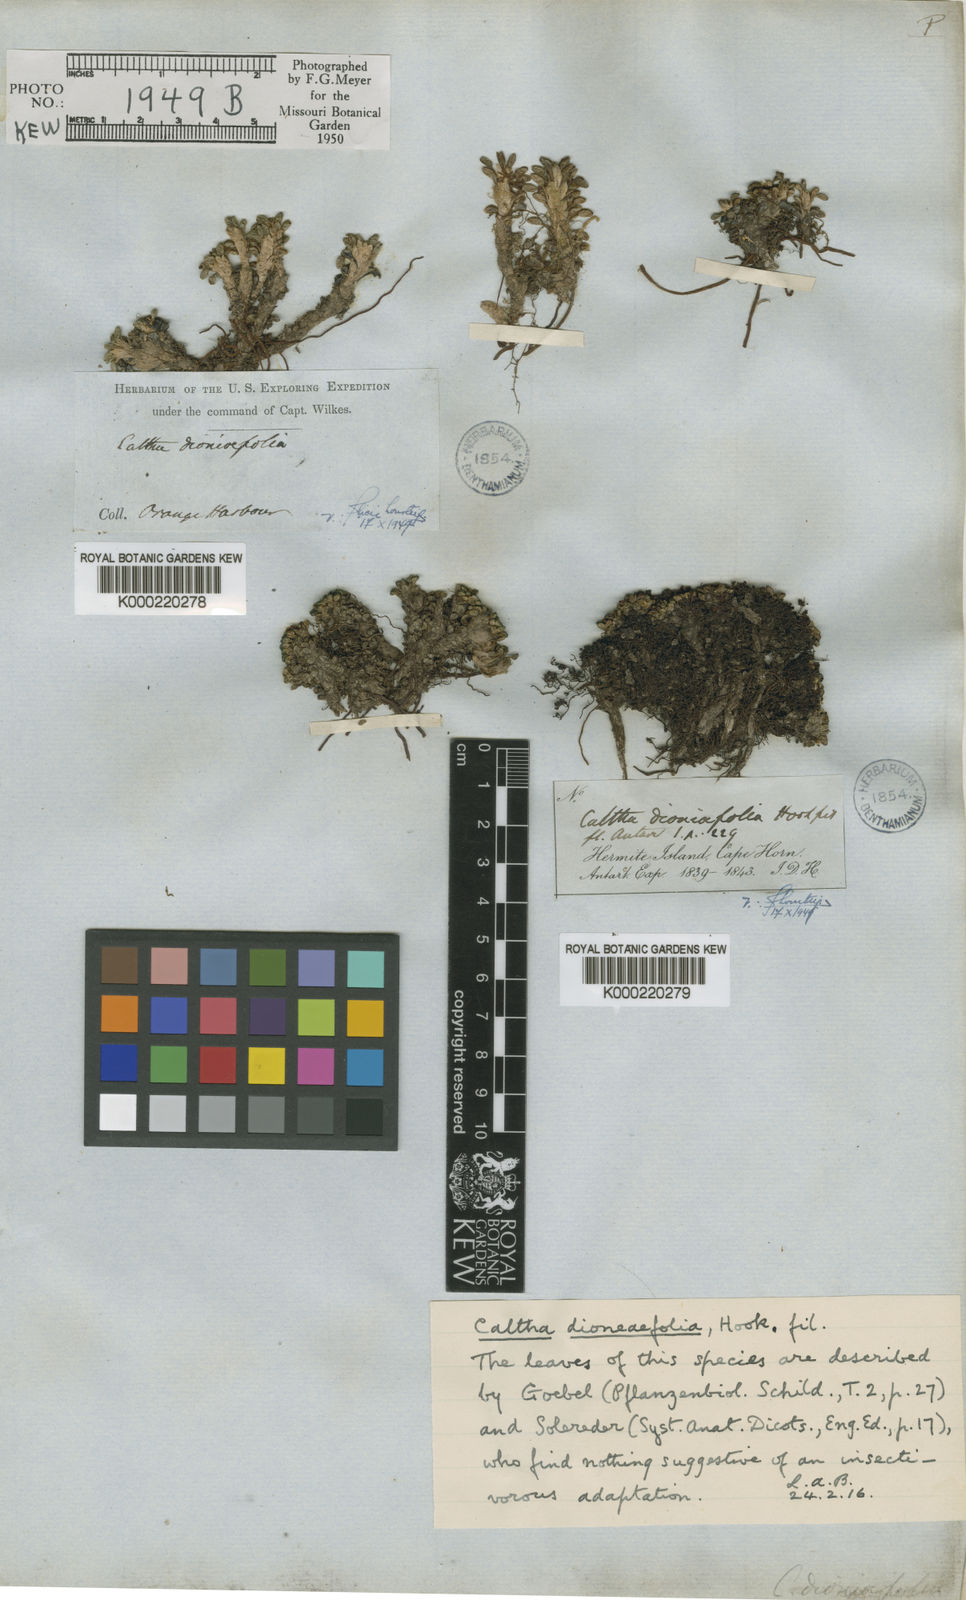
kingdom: Plantae
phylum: Tracheophyta
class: Magnoliopsida
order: Ranunculales
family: Ranunculaceae
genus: Caltha
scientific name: Caltha
